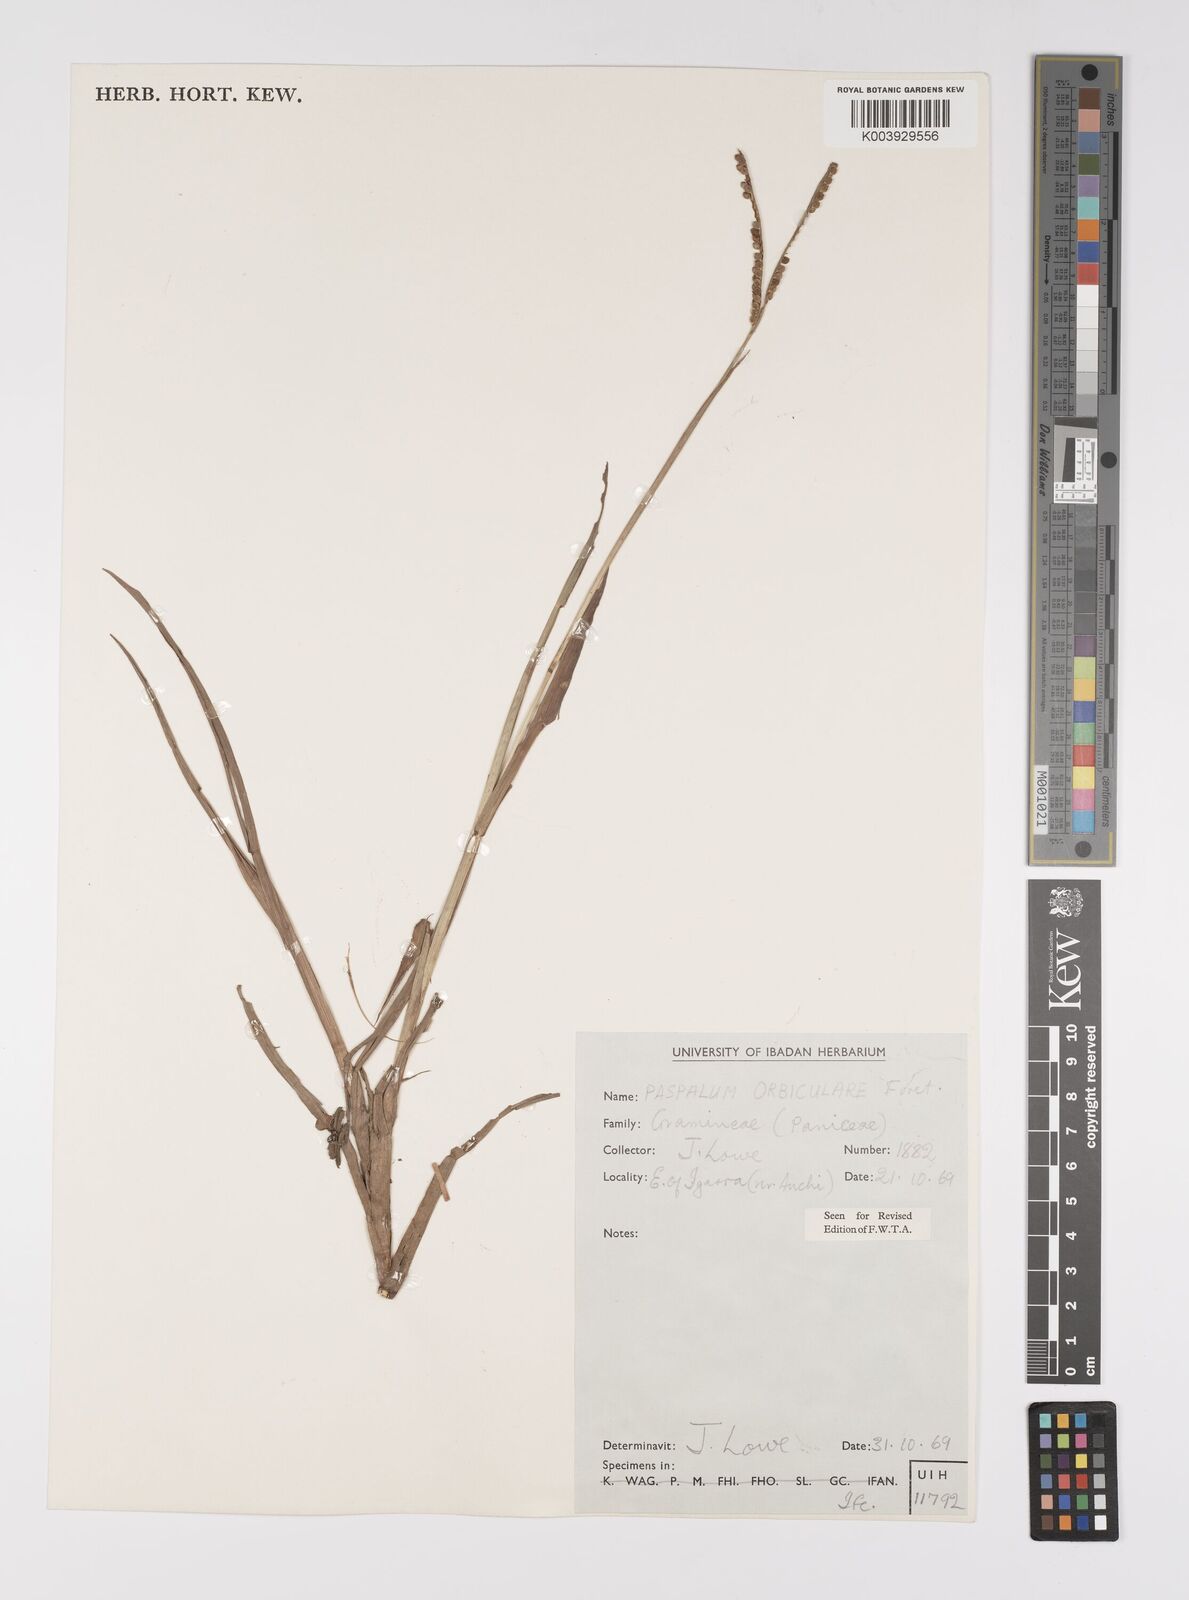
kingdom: Plantae
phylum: Tracheophyta
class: Liliopsida
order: Poales
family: Poaceae
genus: Paspalum
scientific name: Paspalum scrobiculatum
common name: Kodo millet
